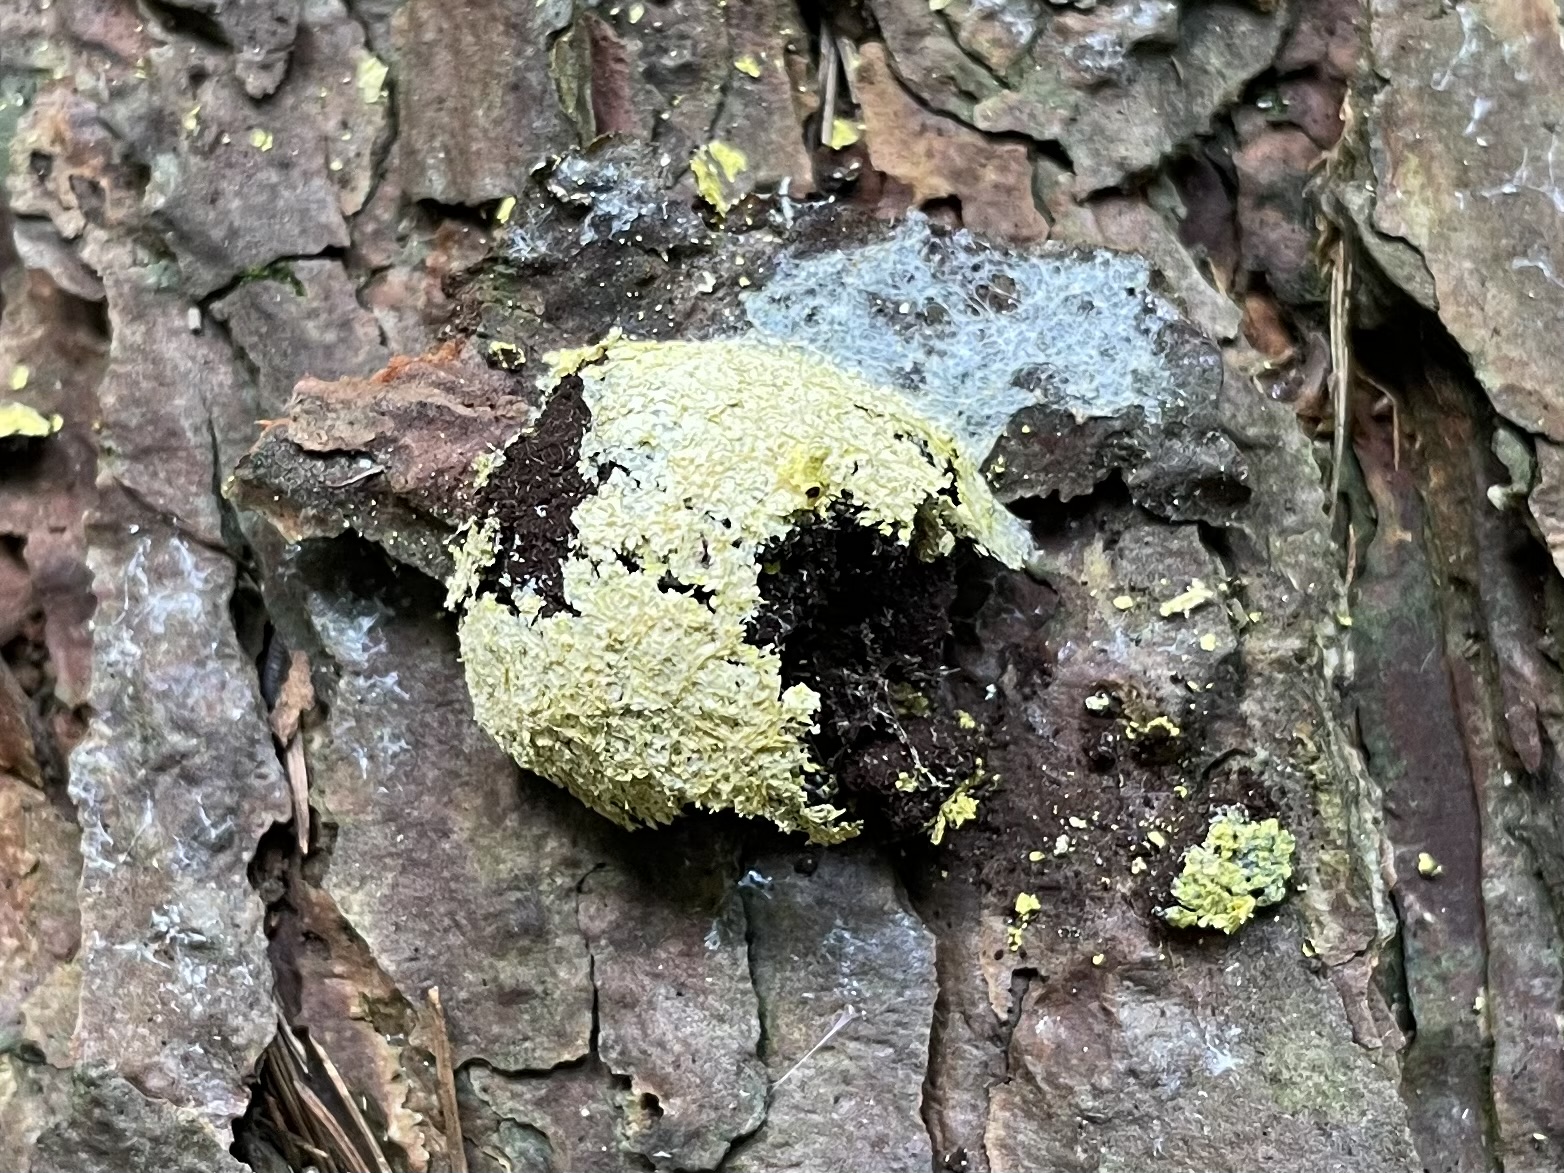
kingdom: Protozoa
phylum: Mycetozoa
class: Myxomycetes
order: Physarales
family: Physaraceae
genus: Fuligo
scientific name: Fuligo septica
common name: gul troldsmør
